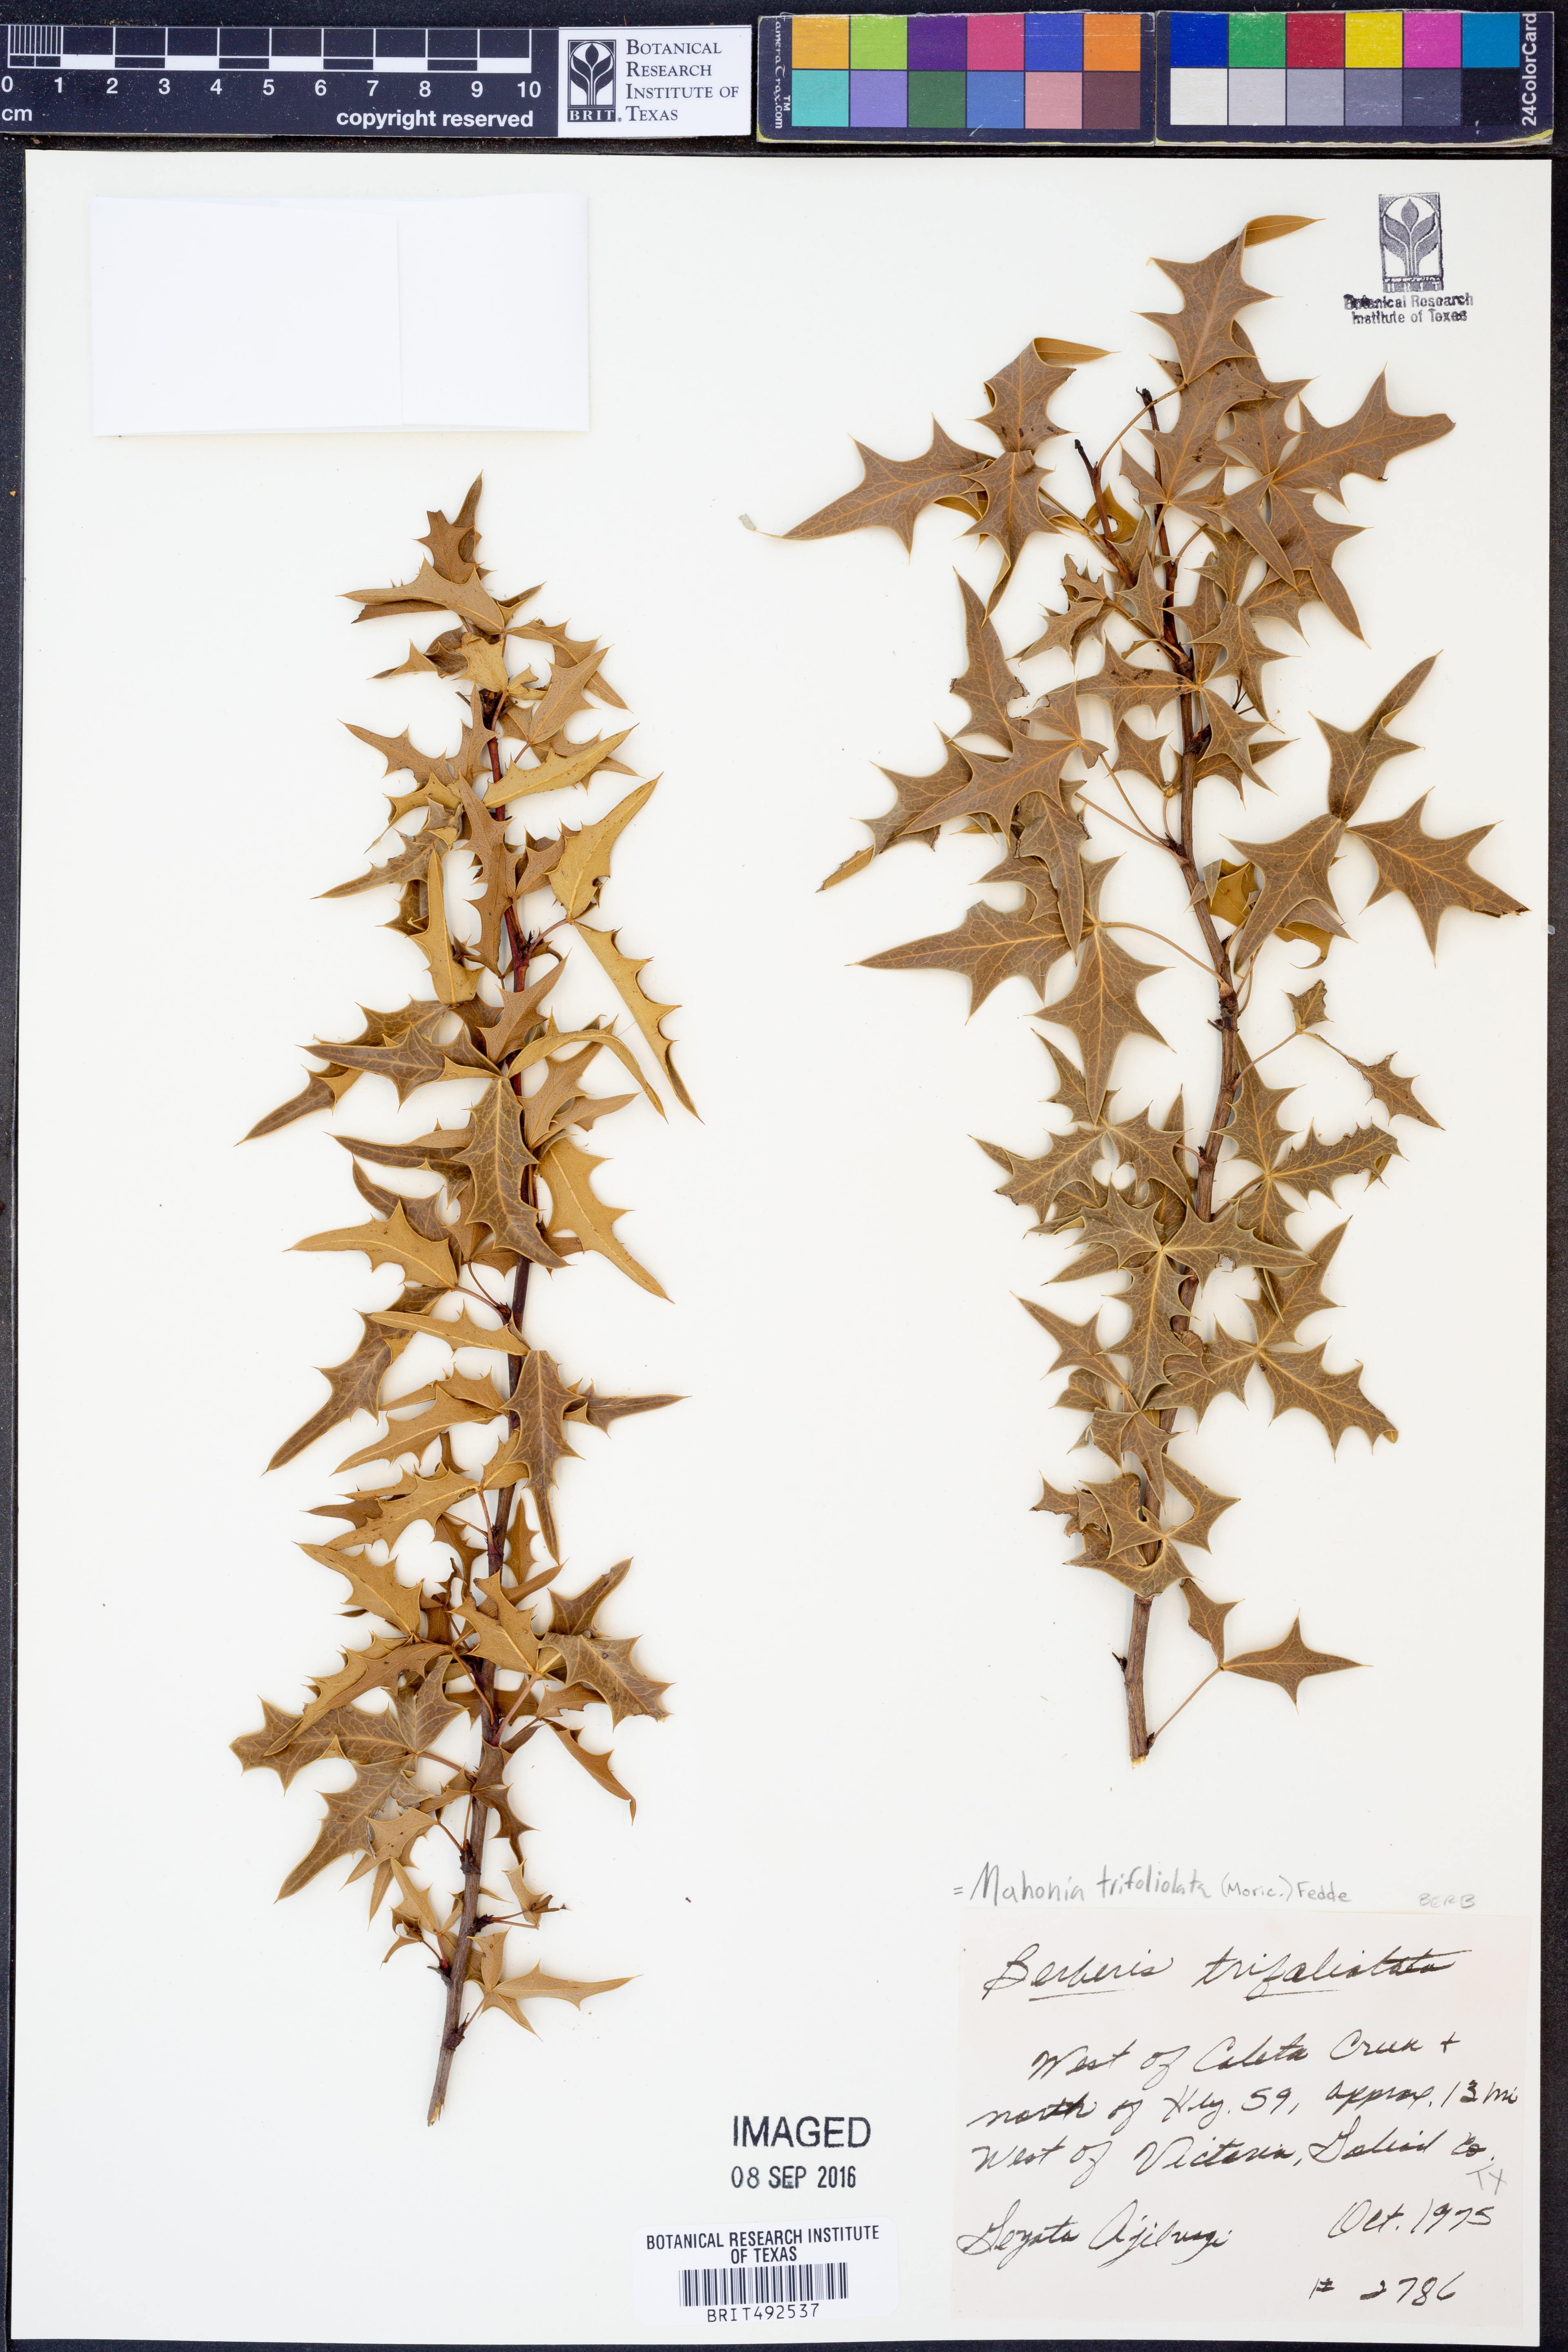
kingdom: Plantae
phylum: Tracheophyta
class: Magnoliopsida
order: Ranunculales
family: Berberidaceae
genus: Alloberberis
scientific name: Alloberberis trifoliolata
